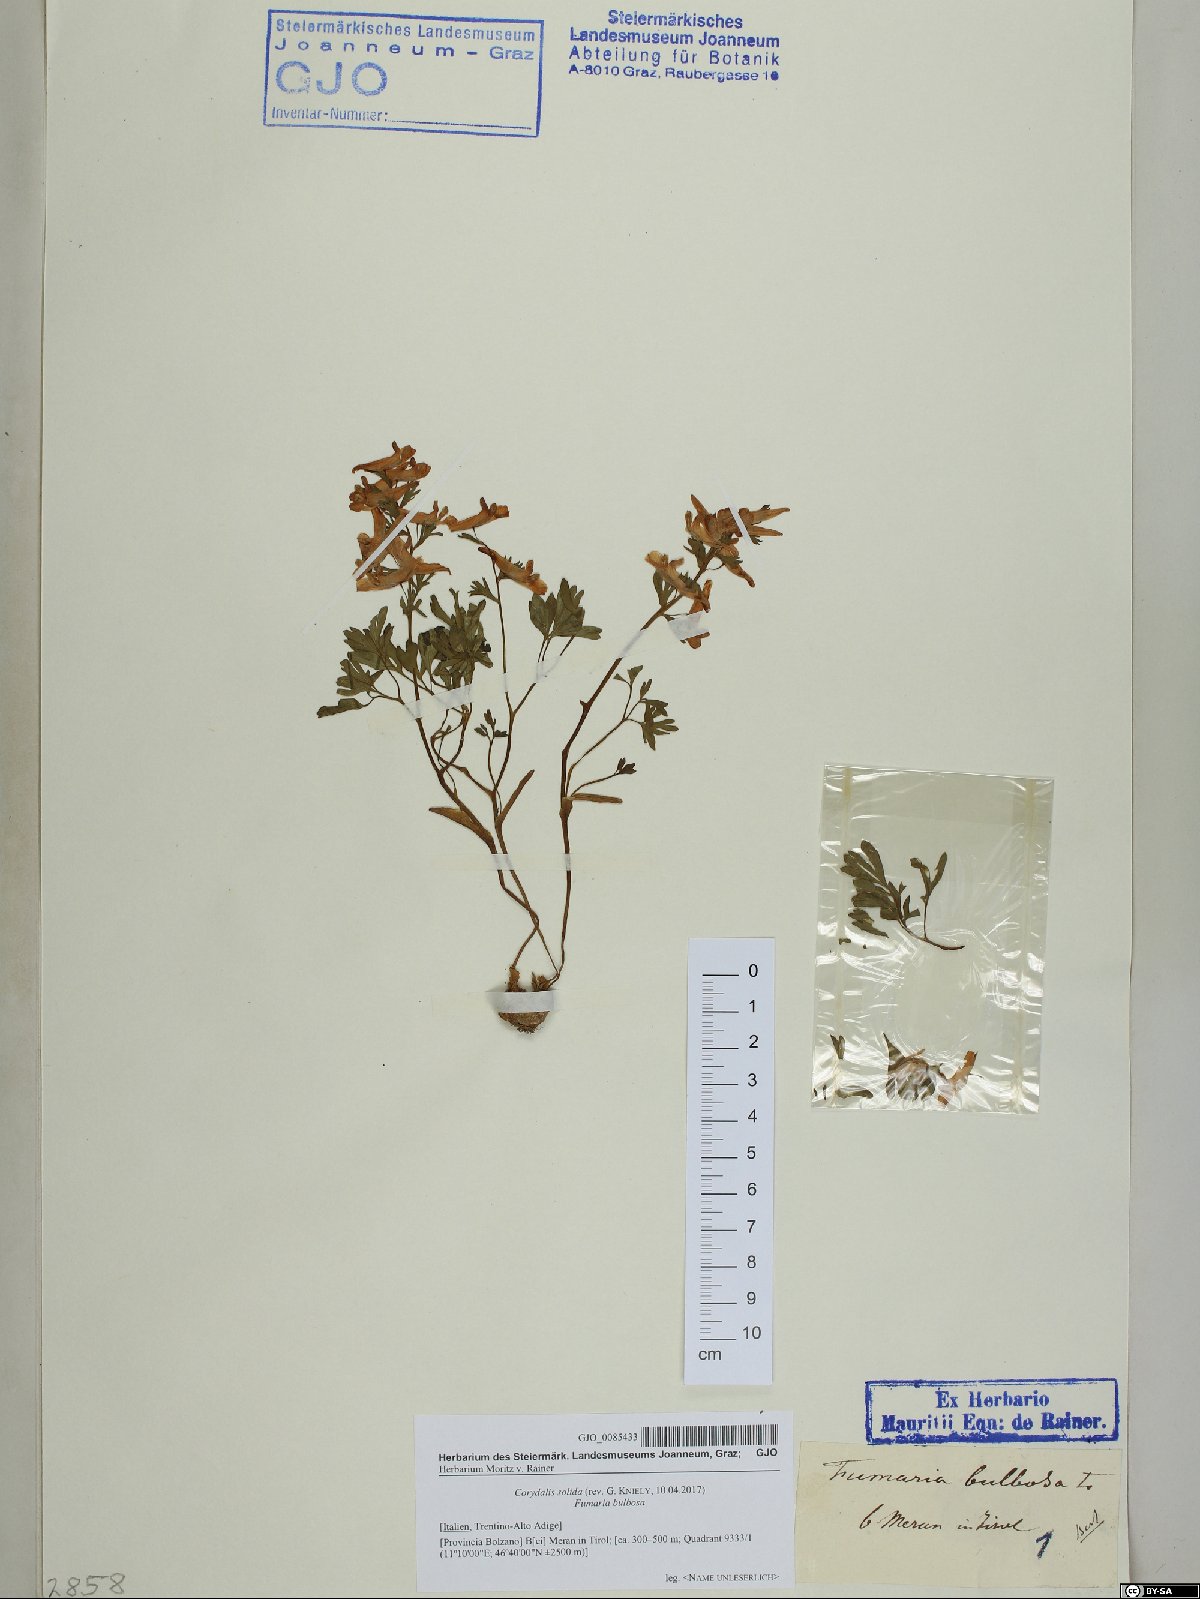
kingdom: Plantae
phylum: Tracheophyta
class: Magnoliopsida
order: Ranunculales
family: Papaveraceae
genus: Corydalis
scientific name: Corydalis solida
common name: Bird-in-a-bush
